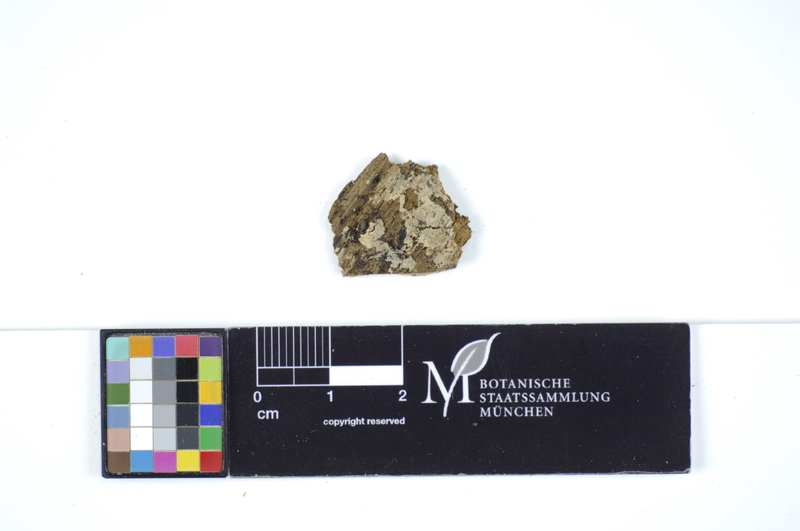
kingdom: Fungi
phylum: Basidiomycota
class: Agaricomycetes
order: Polyporales
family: Hyphodermataceae
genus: Hyphoderma
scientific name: Hyphoderma occidentale
